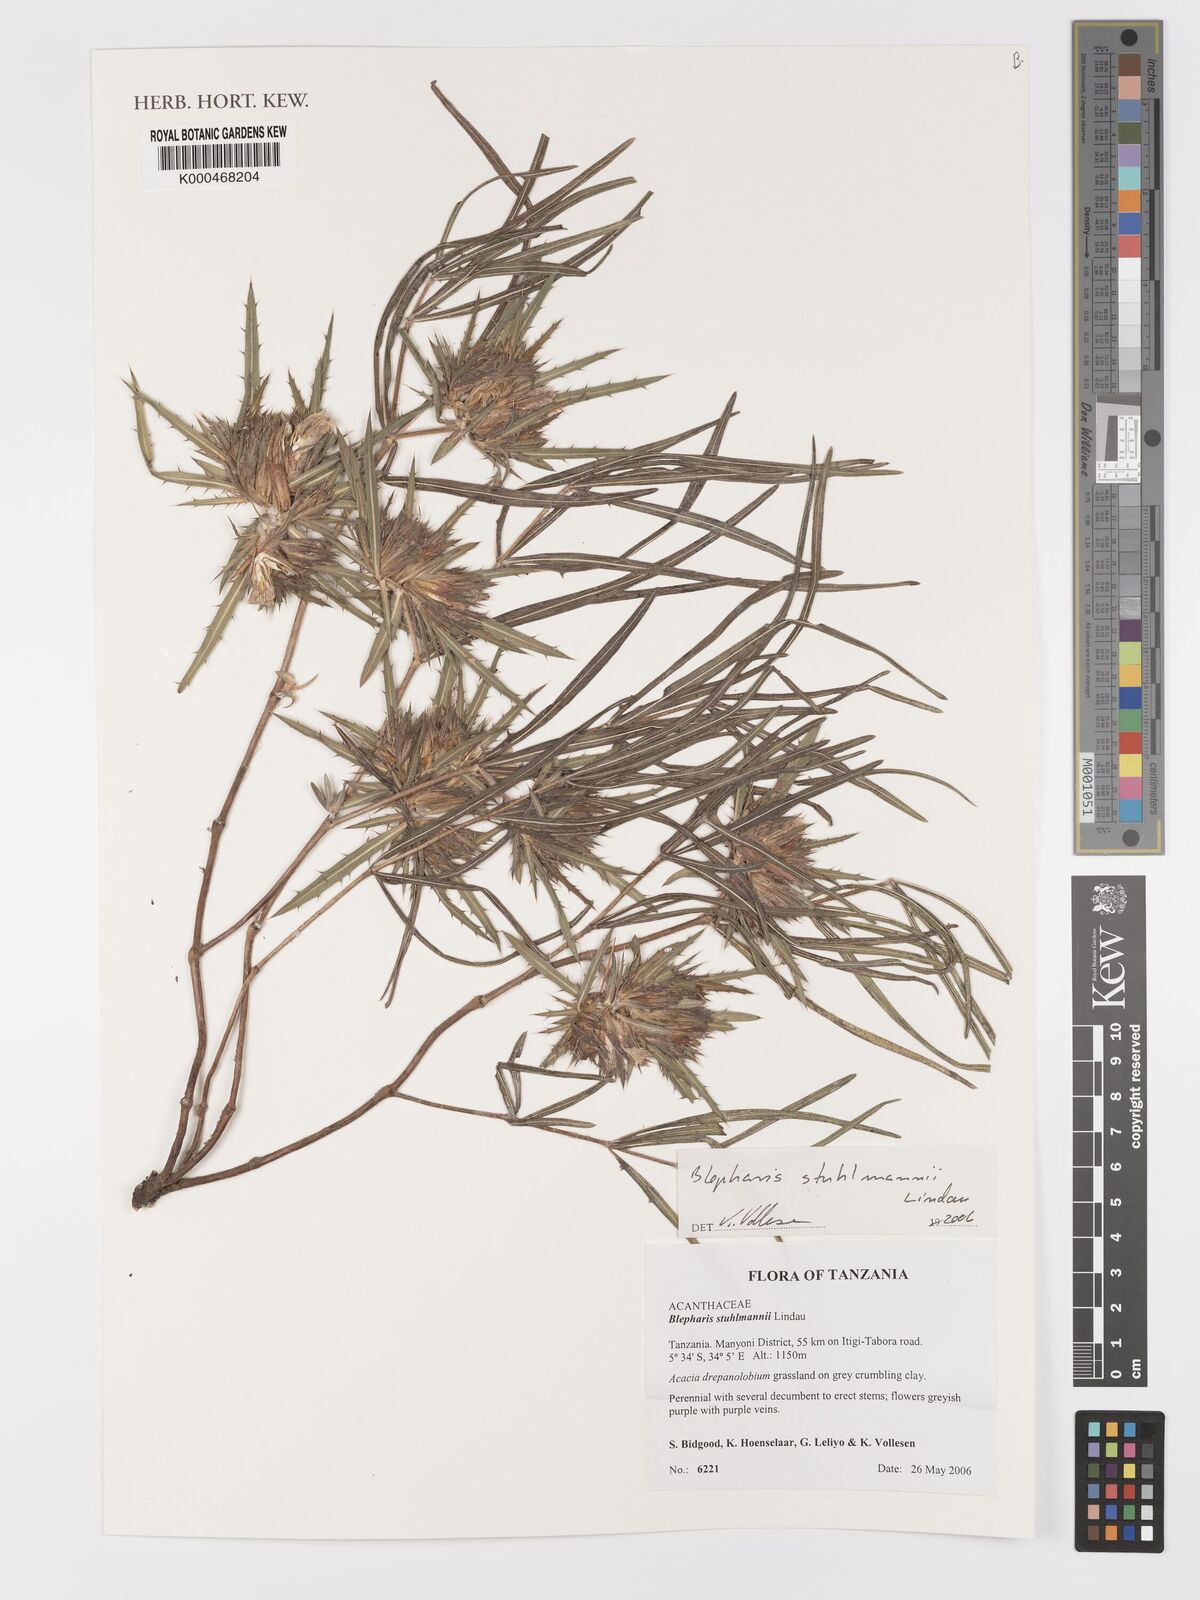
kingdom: Plantae
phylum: Tracheophyta
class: Magnoliopsida
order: Lamiales
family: Acanthaceae
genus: Blepharis
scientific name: Blepharis stuhlmannii
